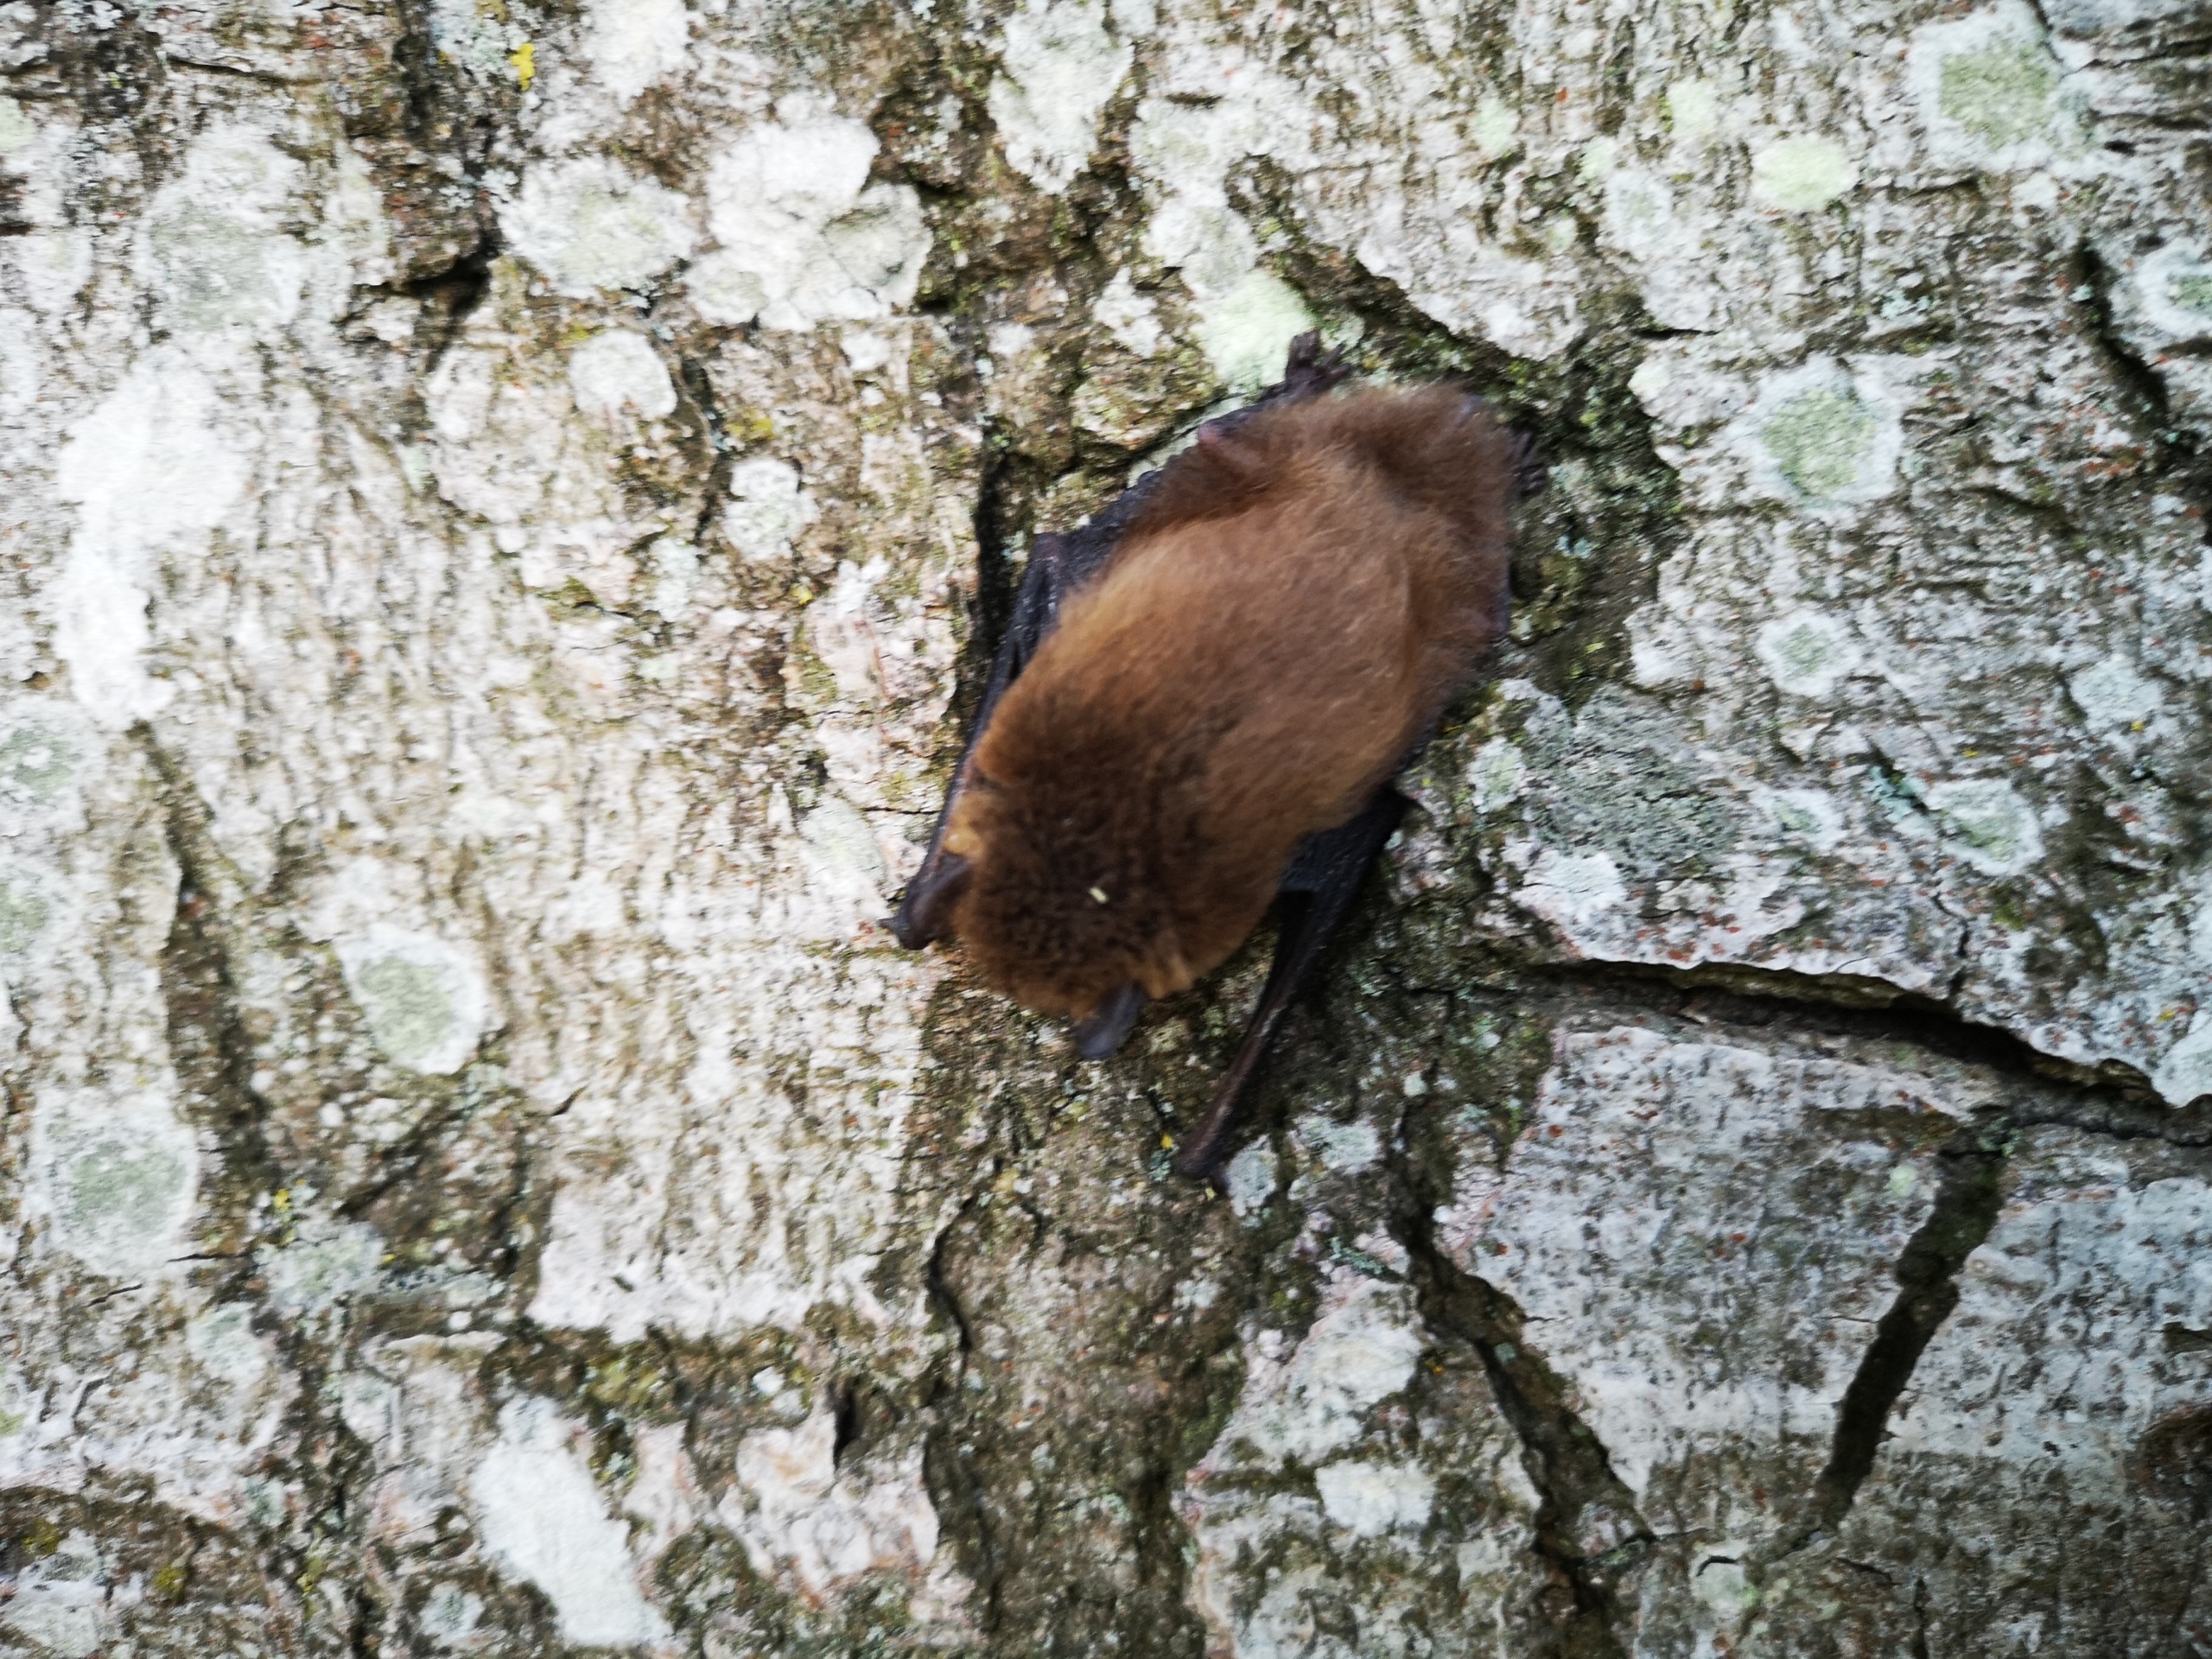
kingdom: Animalia
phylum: Chordata
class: Mammalia
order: Chiroptera
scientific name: Chiroptera
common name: Flagermus
